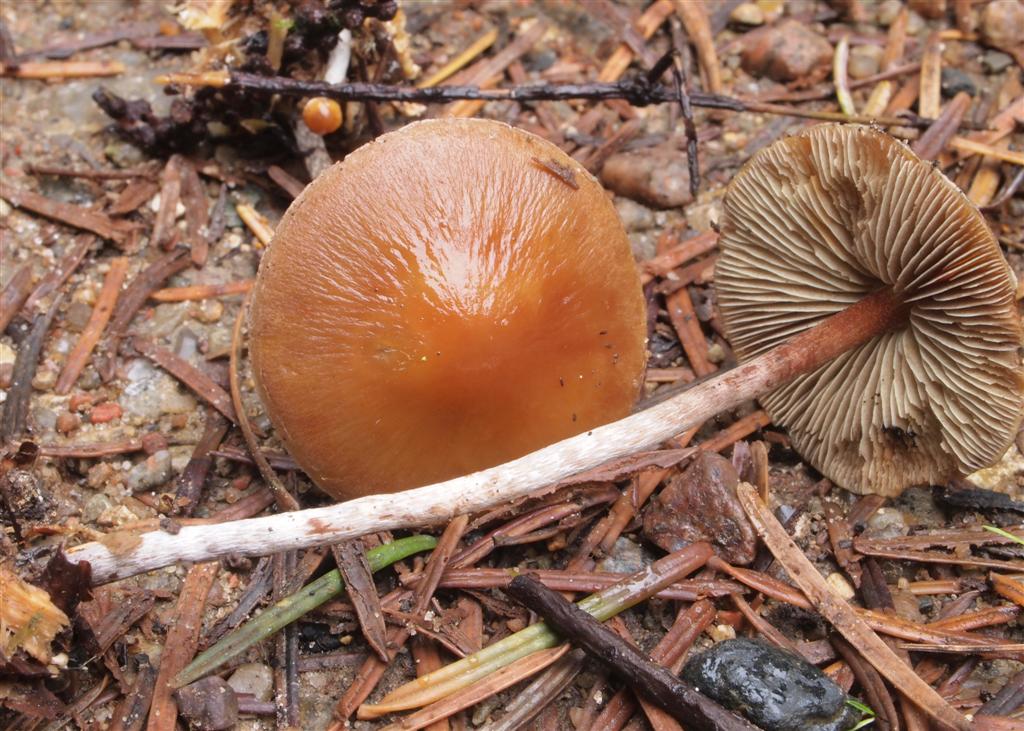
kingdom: Fungi
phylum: Basidiomycota
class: Agaricomycetes
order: Agaricales
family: Strophariaceae
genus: Hypholoma
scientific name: Hypholoma marginatum
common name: enlig svovlhat
